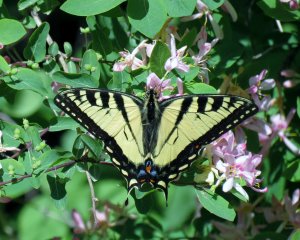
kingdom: Animalia
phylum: Arthropoda
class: Insecta
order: Lepidoptera
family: Papilionidae
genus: Pterourus
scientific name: Pterourus canadensis
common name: Canadian Tiger Swallowtail
